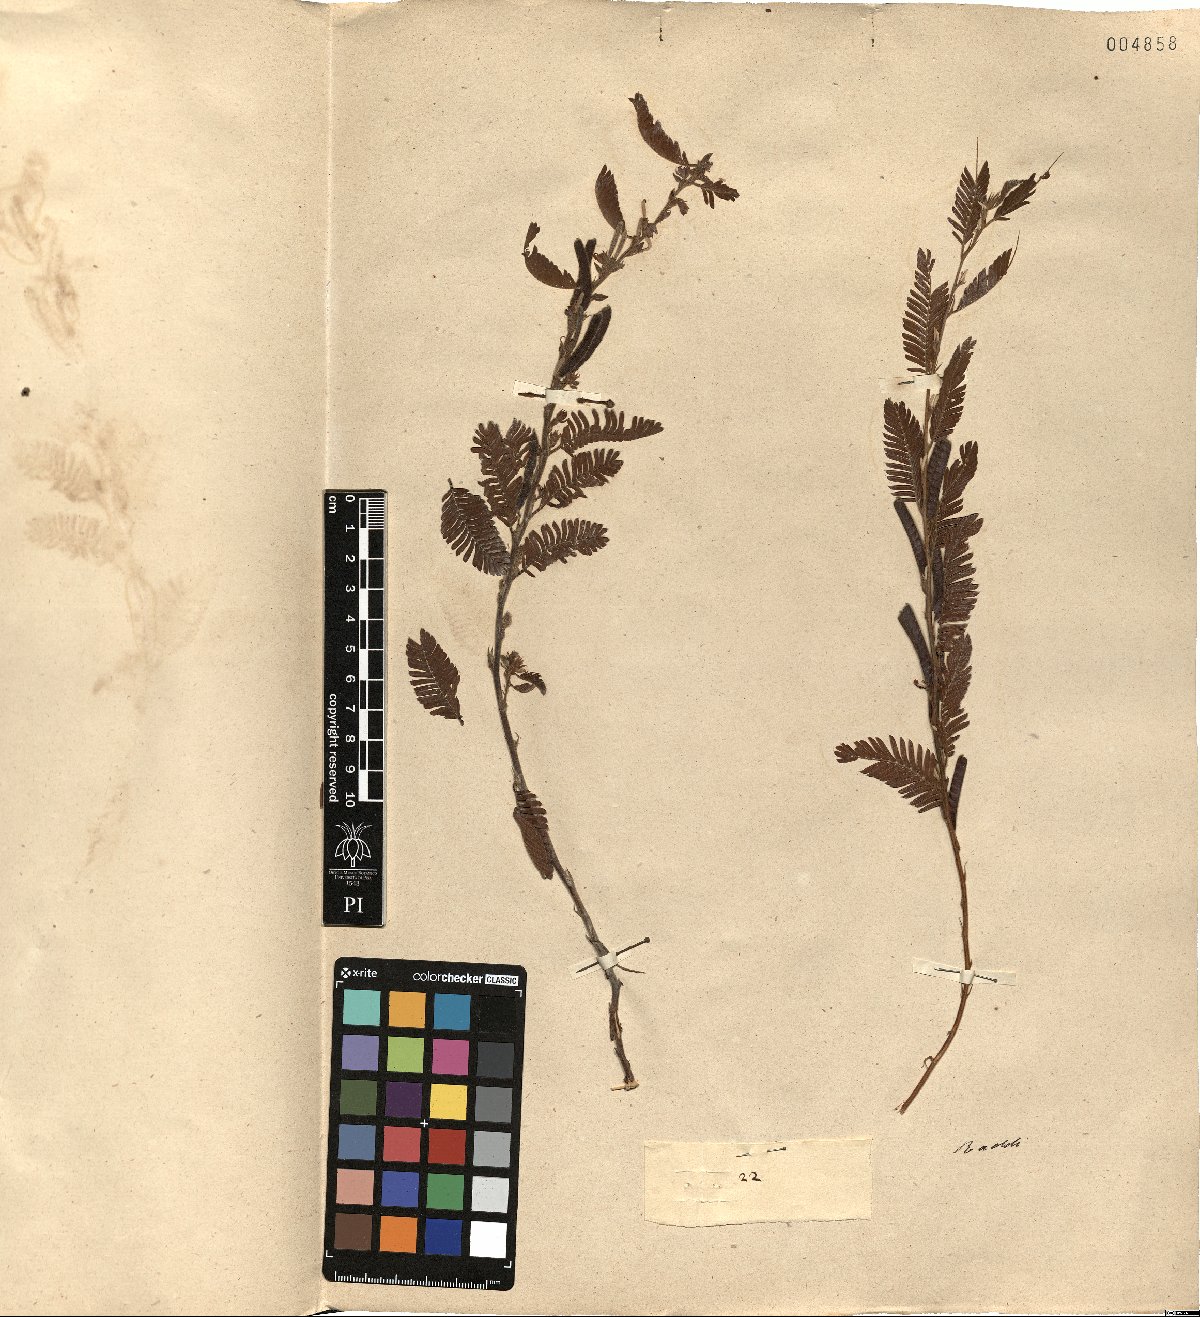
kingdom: Plantae
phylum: Tracheophyta
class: Magnoliopsida
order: Fabales
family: Fabaceae
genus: Chamaecrista
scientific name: Chamaecrista nictitans
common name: Sensitive cassia
